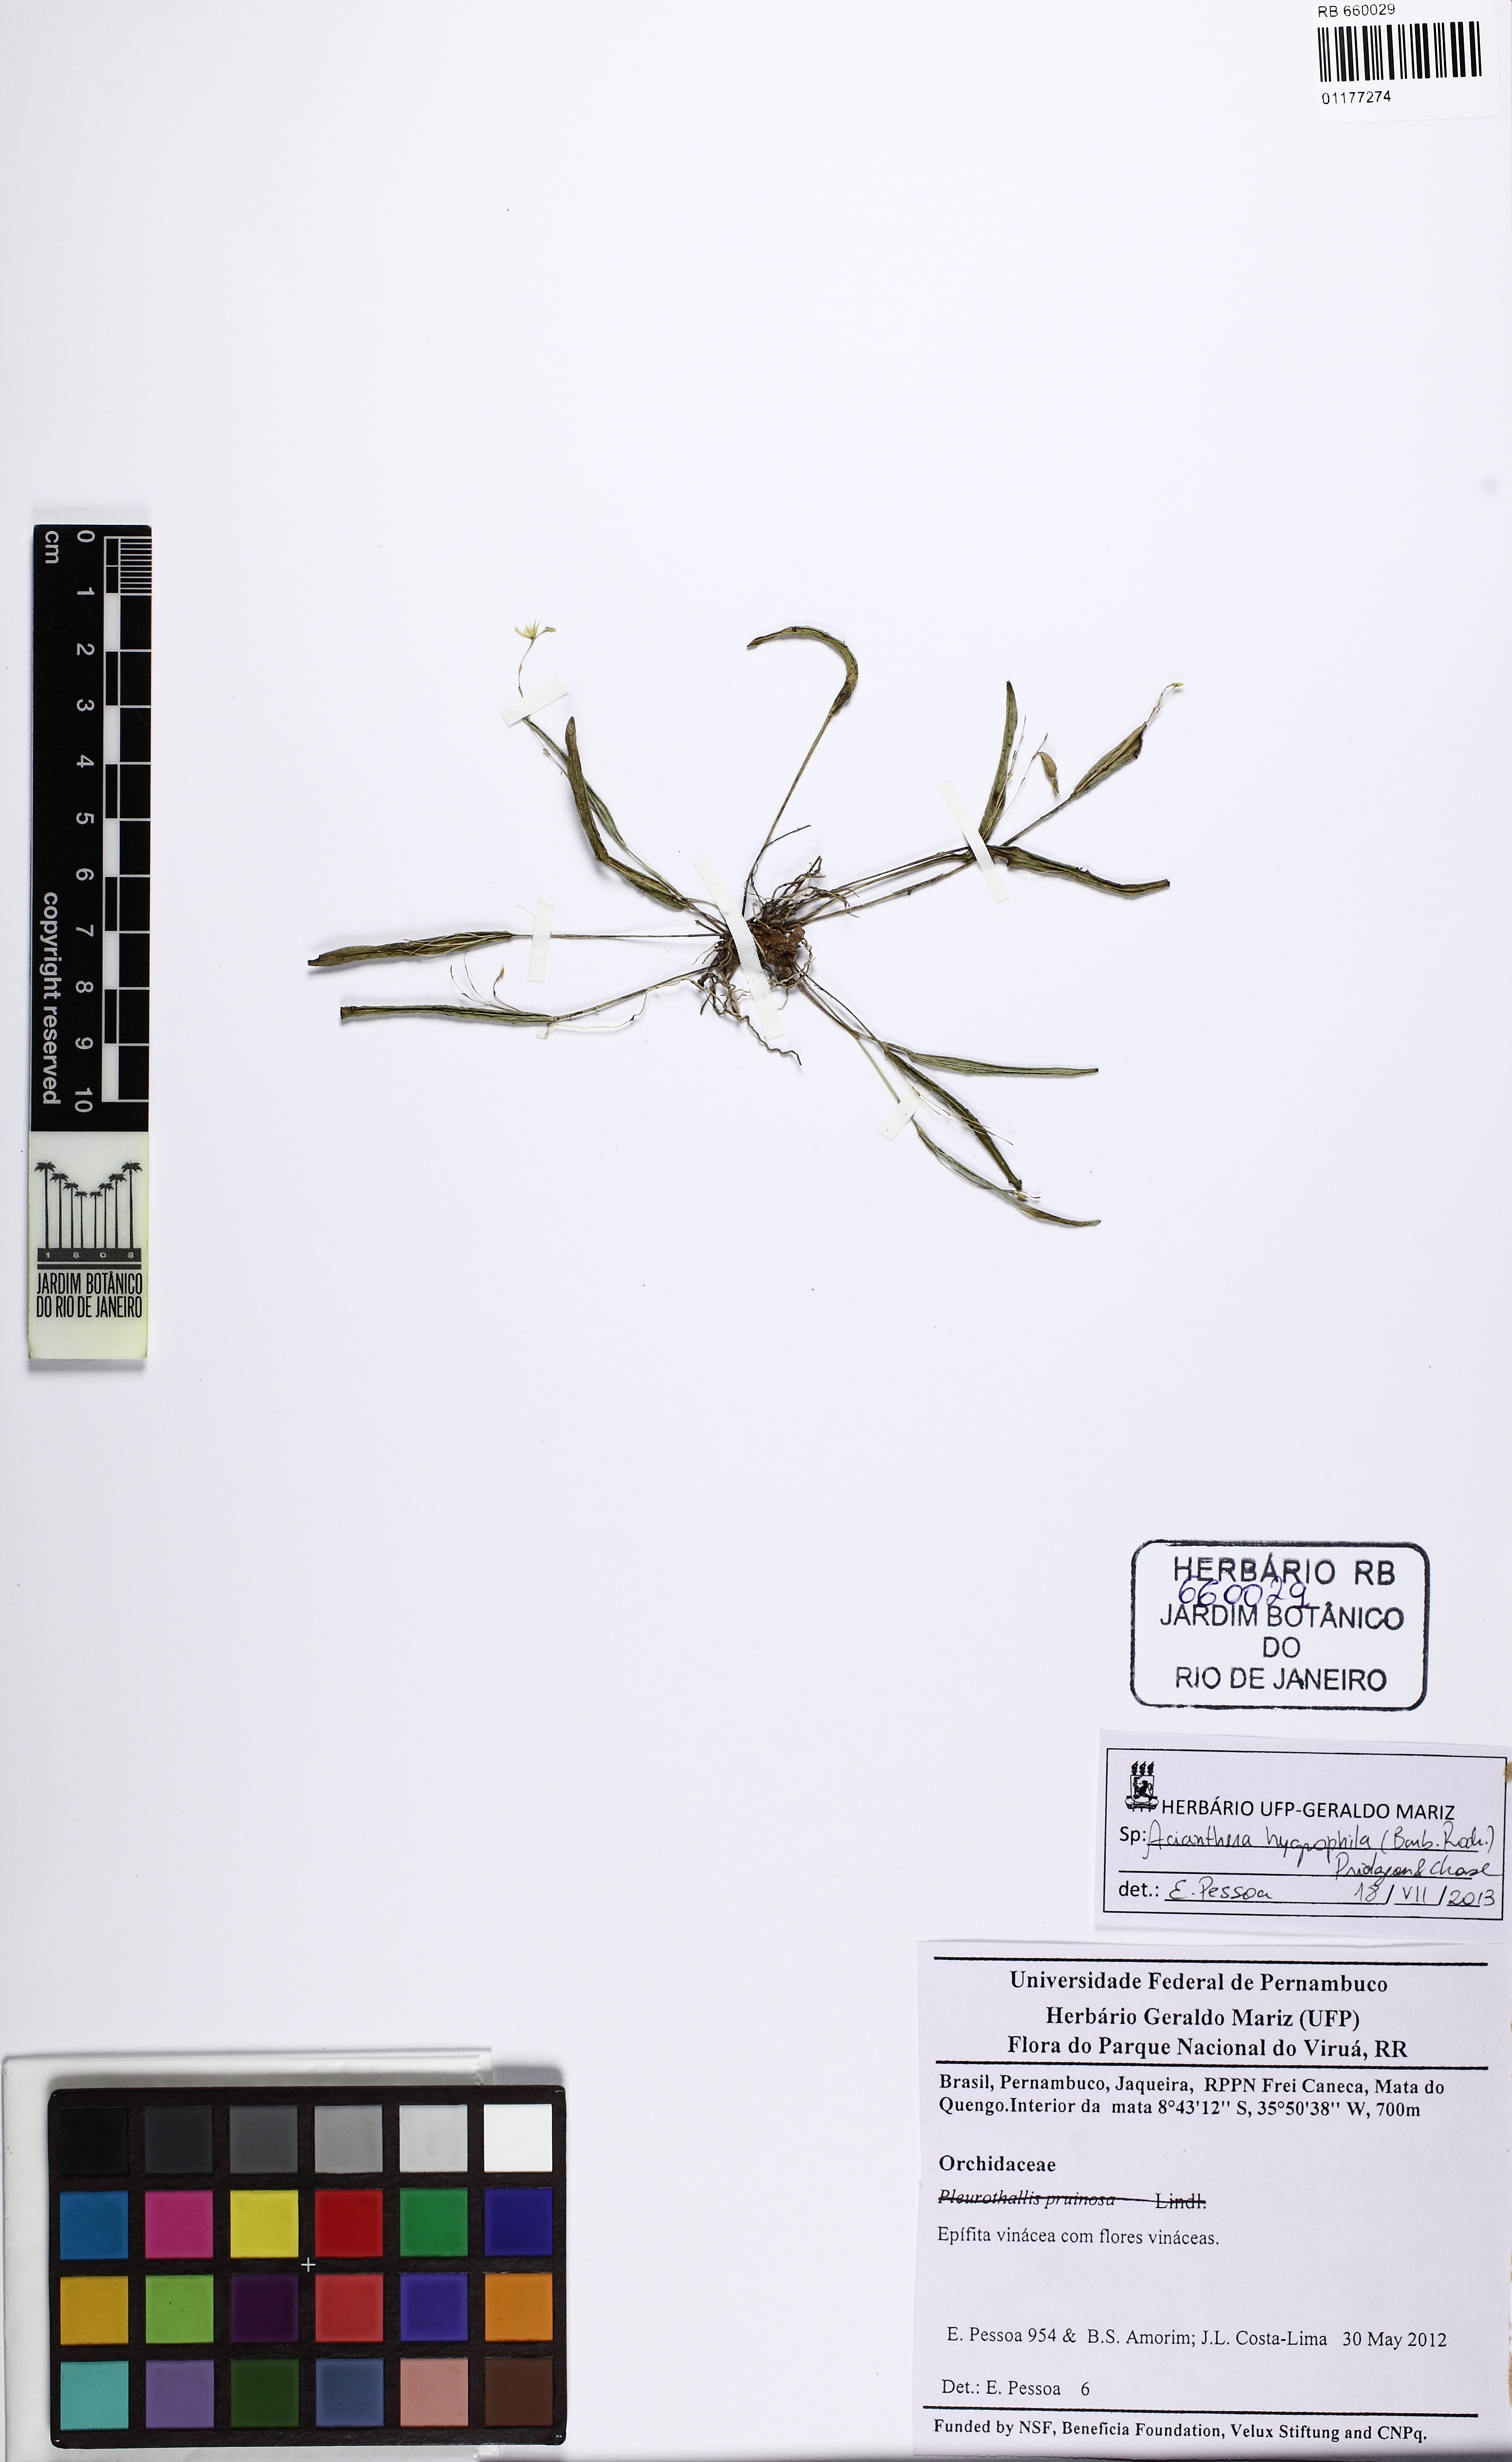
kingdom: Plantae
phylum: Tracheophyta
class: Liliopsida
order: Asparagales
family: Orchidaceae
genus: Acianthera
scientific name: Acianthera hygrophila
